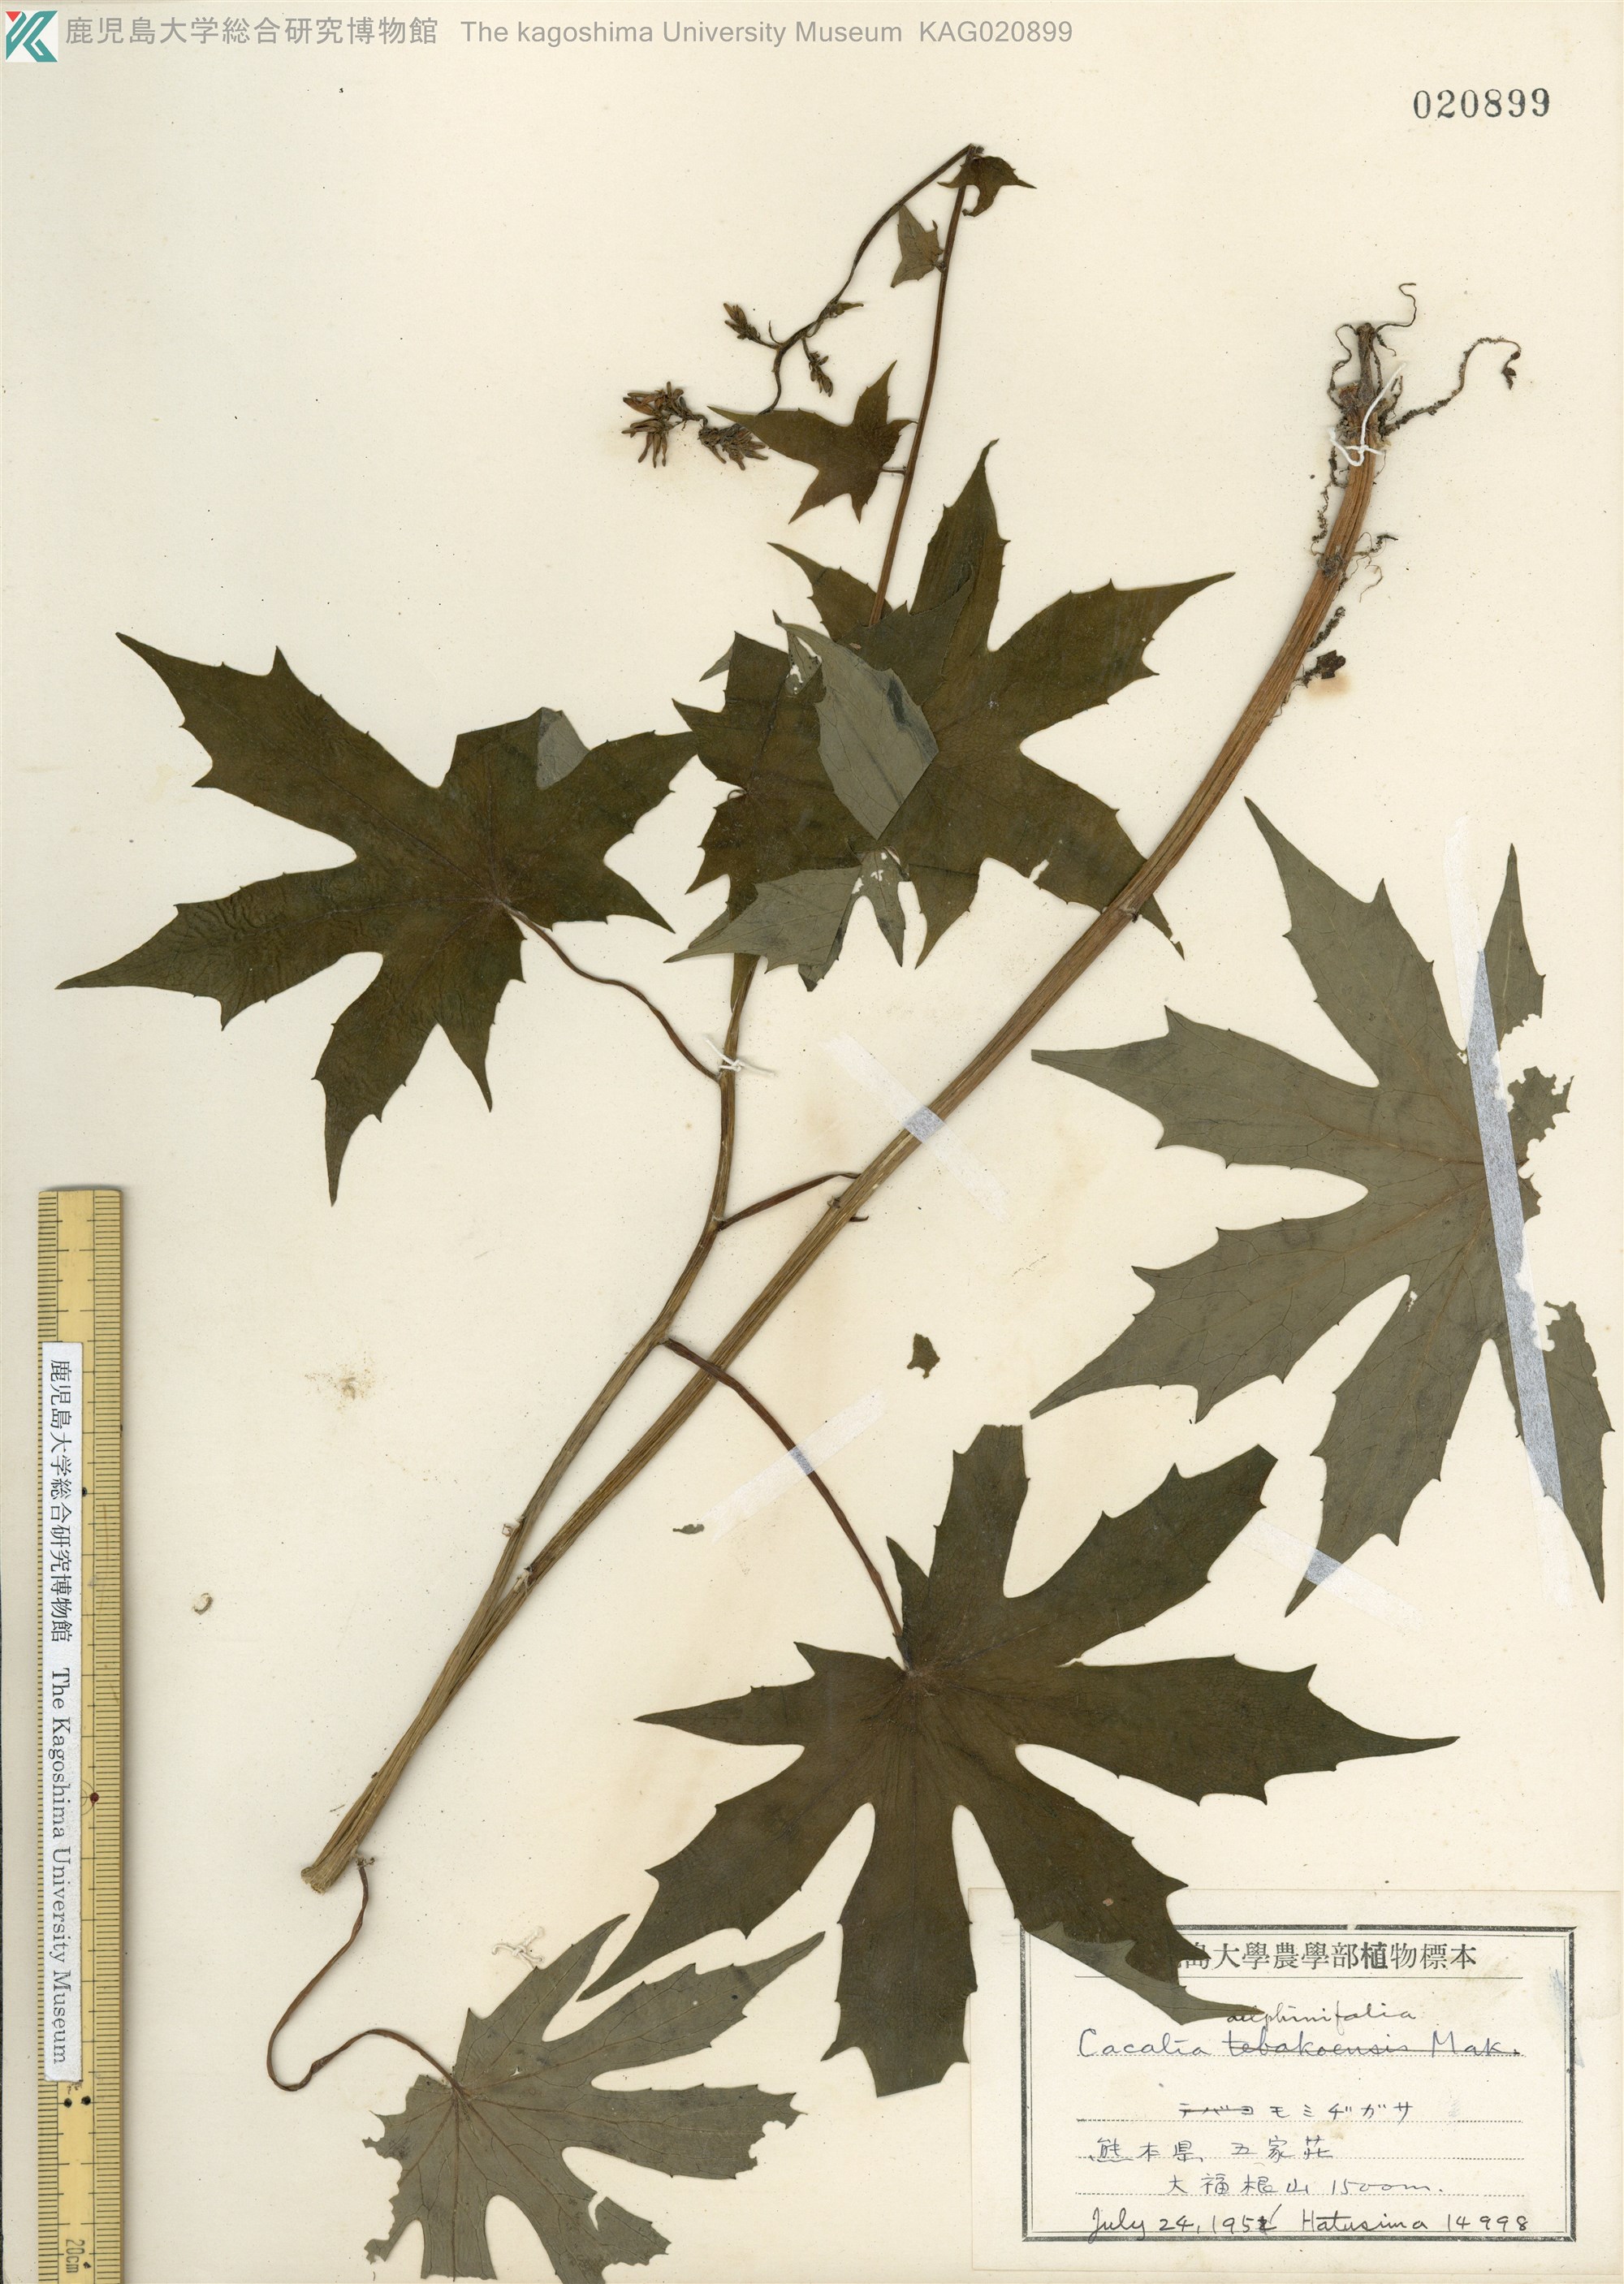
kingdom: Plantae
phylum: Tracheophyta
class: Magnoliopsida
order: Asterales
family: Asteraceae
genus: Japonicalia
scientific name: Japonicalia delphiniifolia
